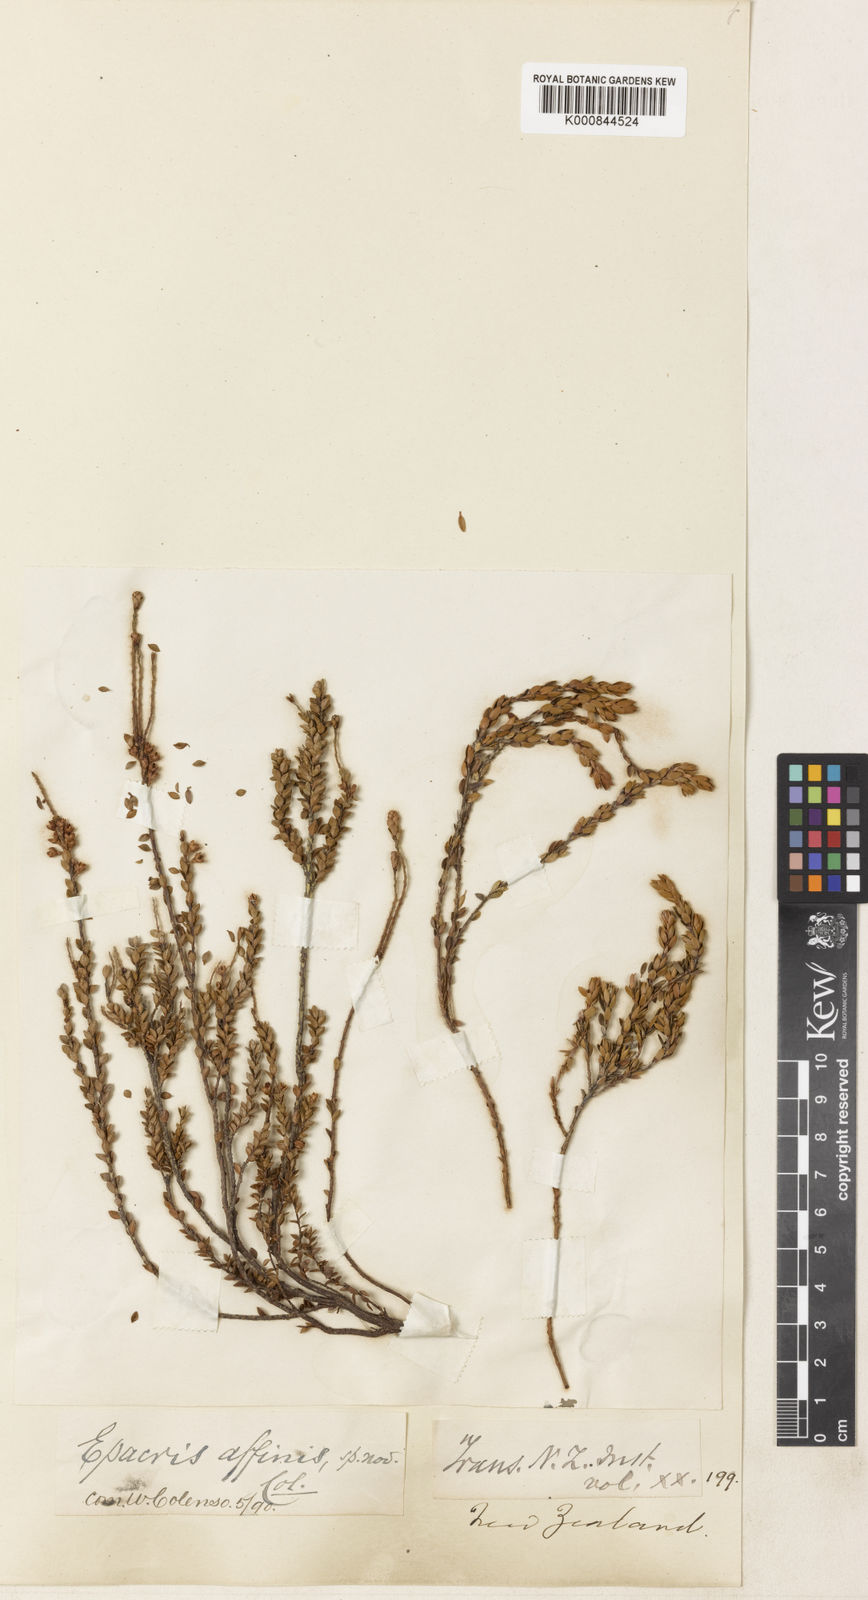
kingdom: Plantae
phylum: Tracheophyta
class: Magnoliopsida
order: Ericales
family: Ericaceae
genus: Epacris
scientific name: Epacris alpina
